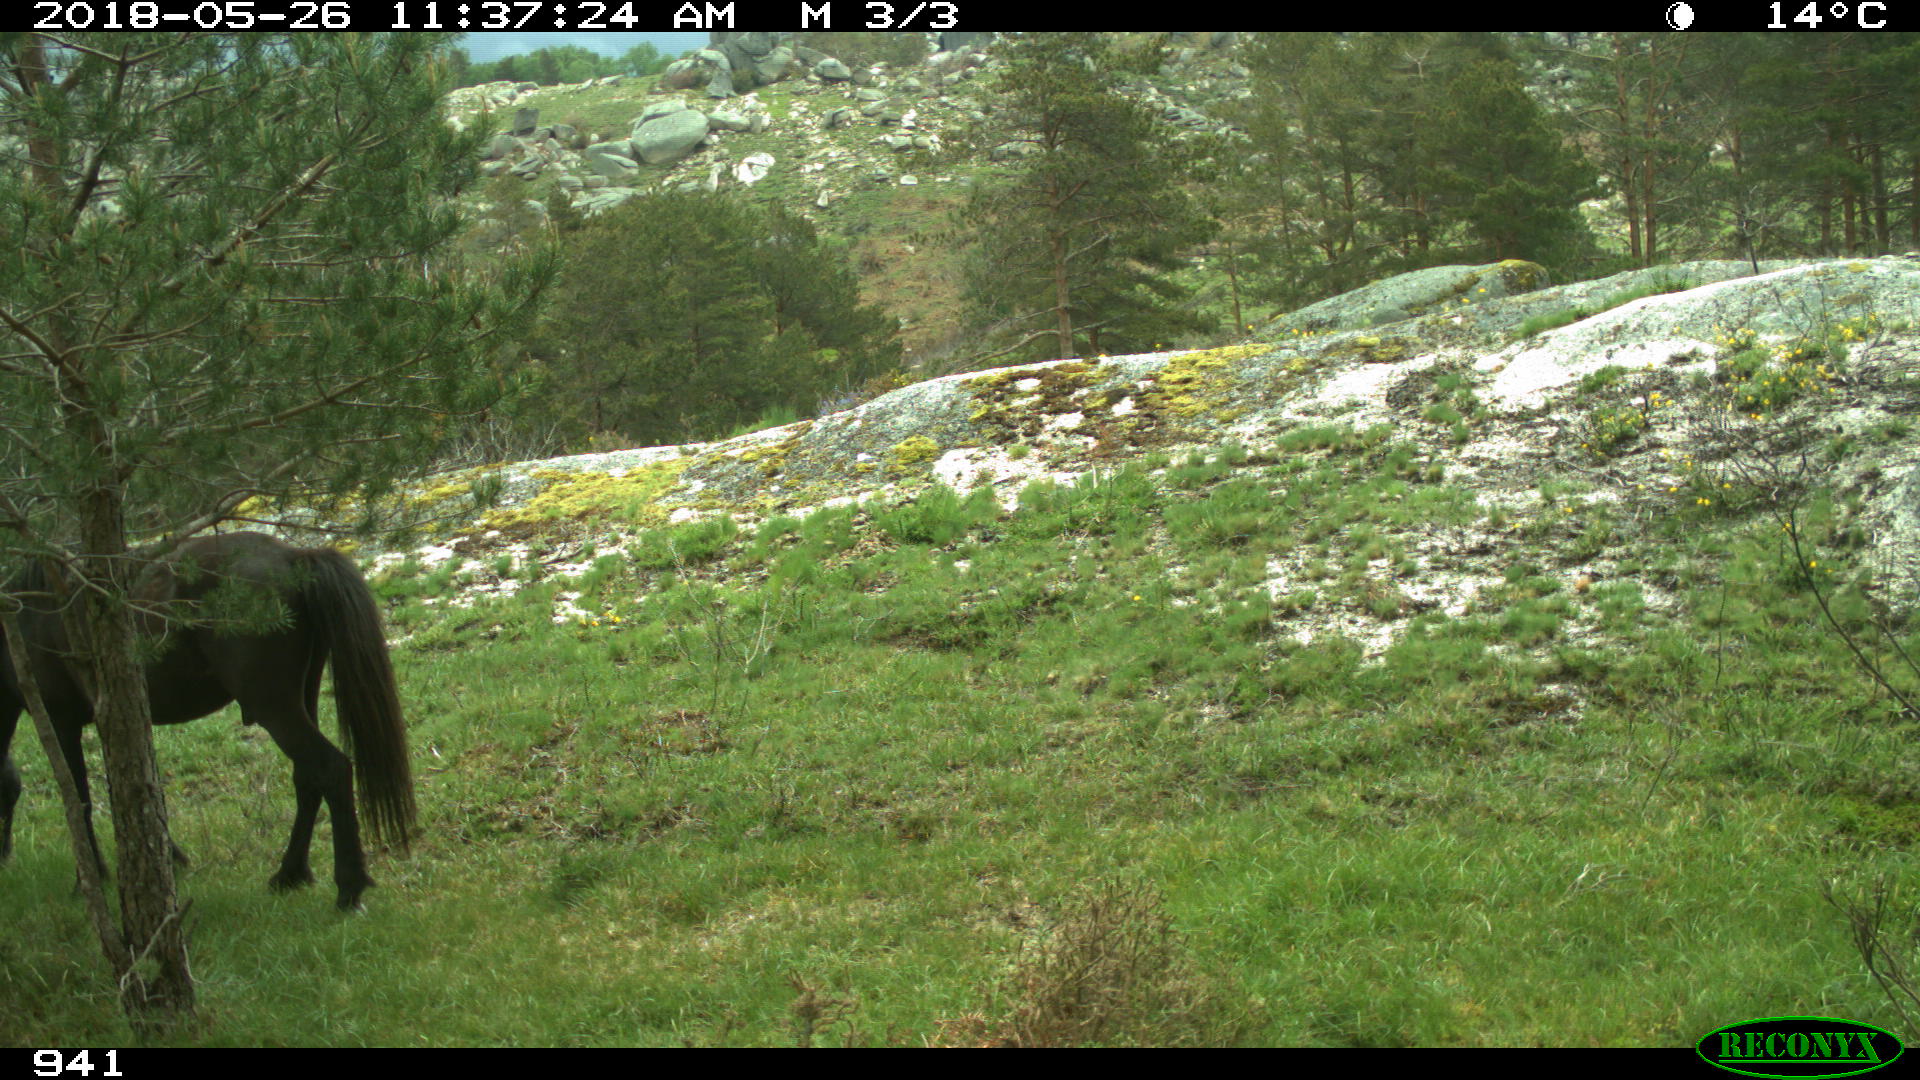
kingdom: Animalia
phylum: Chordata
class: Mammalia
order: Perissodactyla
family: Equidae
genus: Equus
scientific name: Equus caballus
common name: Horse
